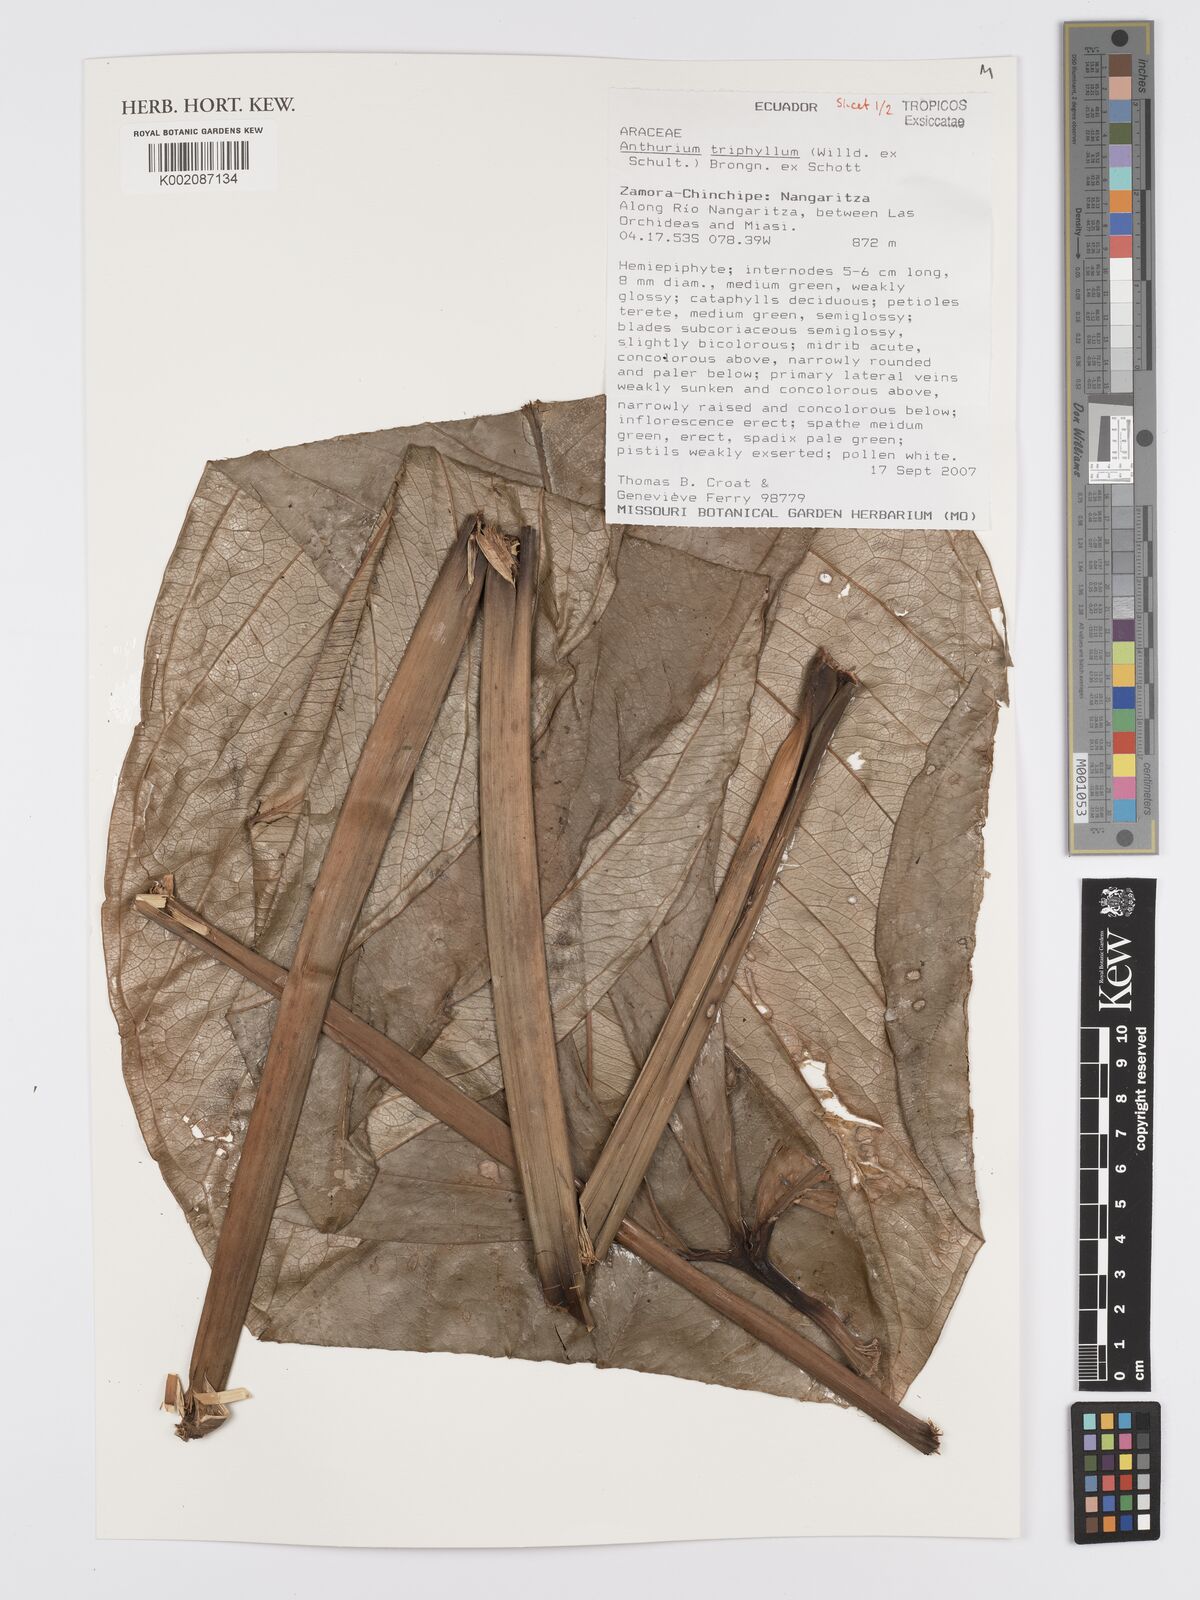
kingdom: Plantae
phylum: Tracheophyta
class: Liliopsida
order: Alismatales
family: Araceae
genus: Anthurium
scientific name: Anthurium triphyllum
